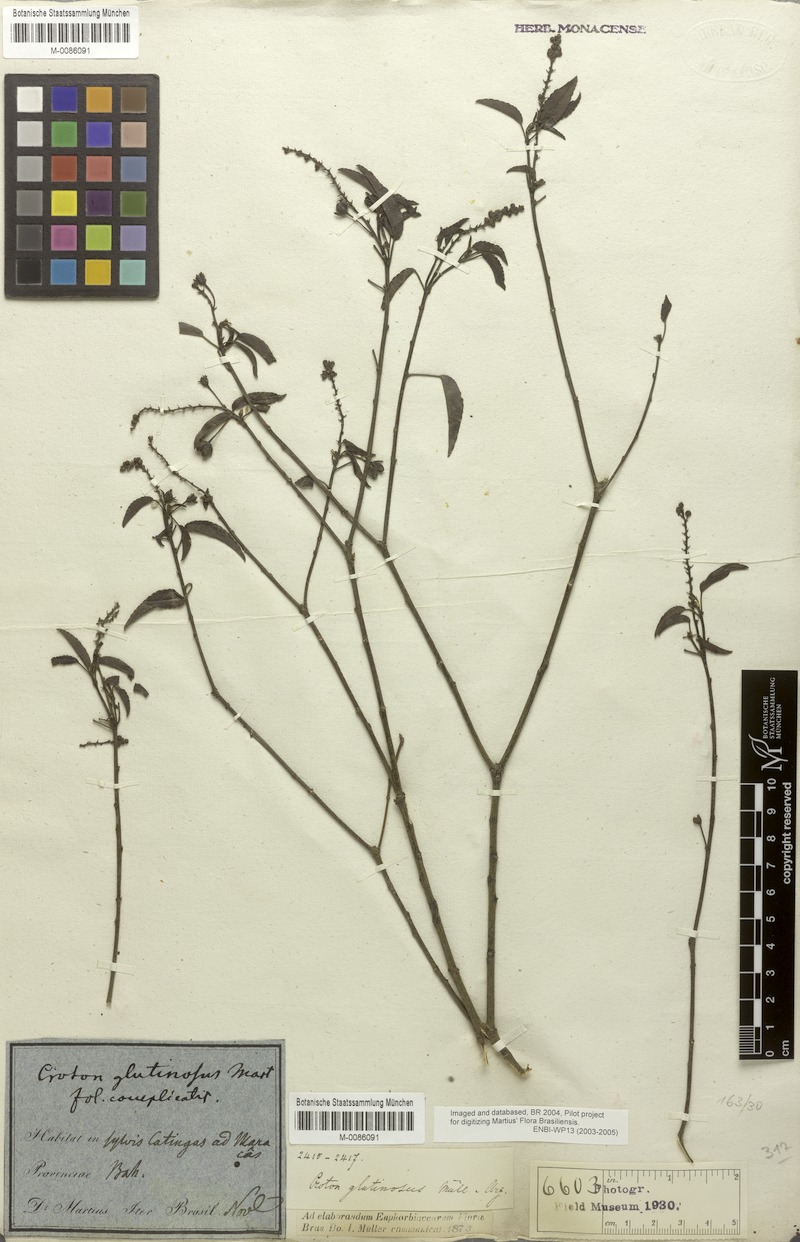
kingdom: Plantae
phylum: Tracheophyta
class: Magnoliopsida
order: Malpighiales
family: Euphorbiaceae
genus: Croton
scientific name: Croton glutinosus
